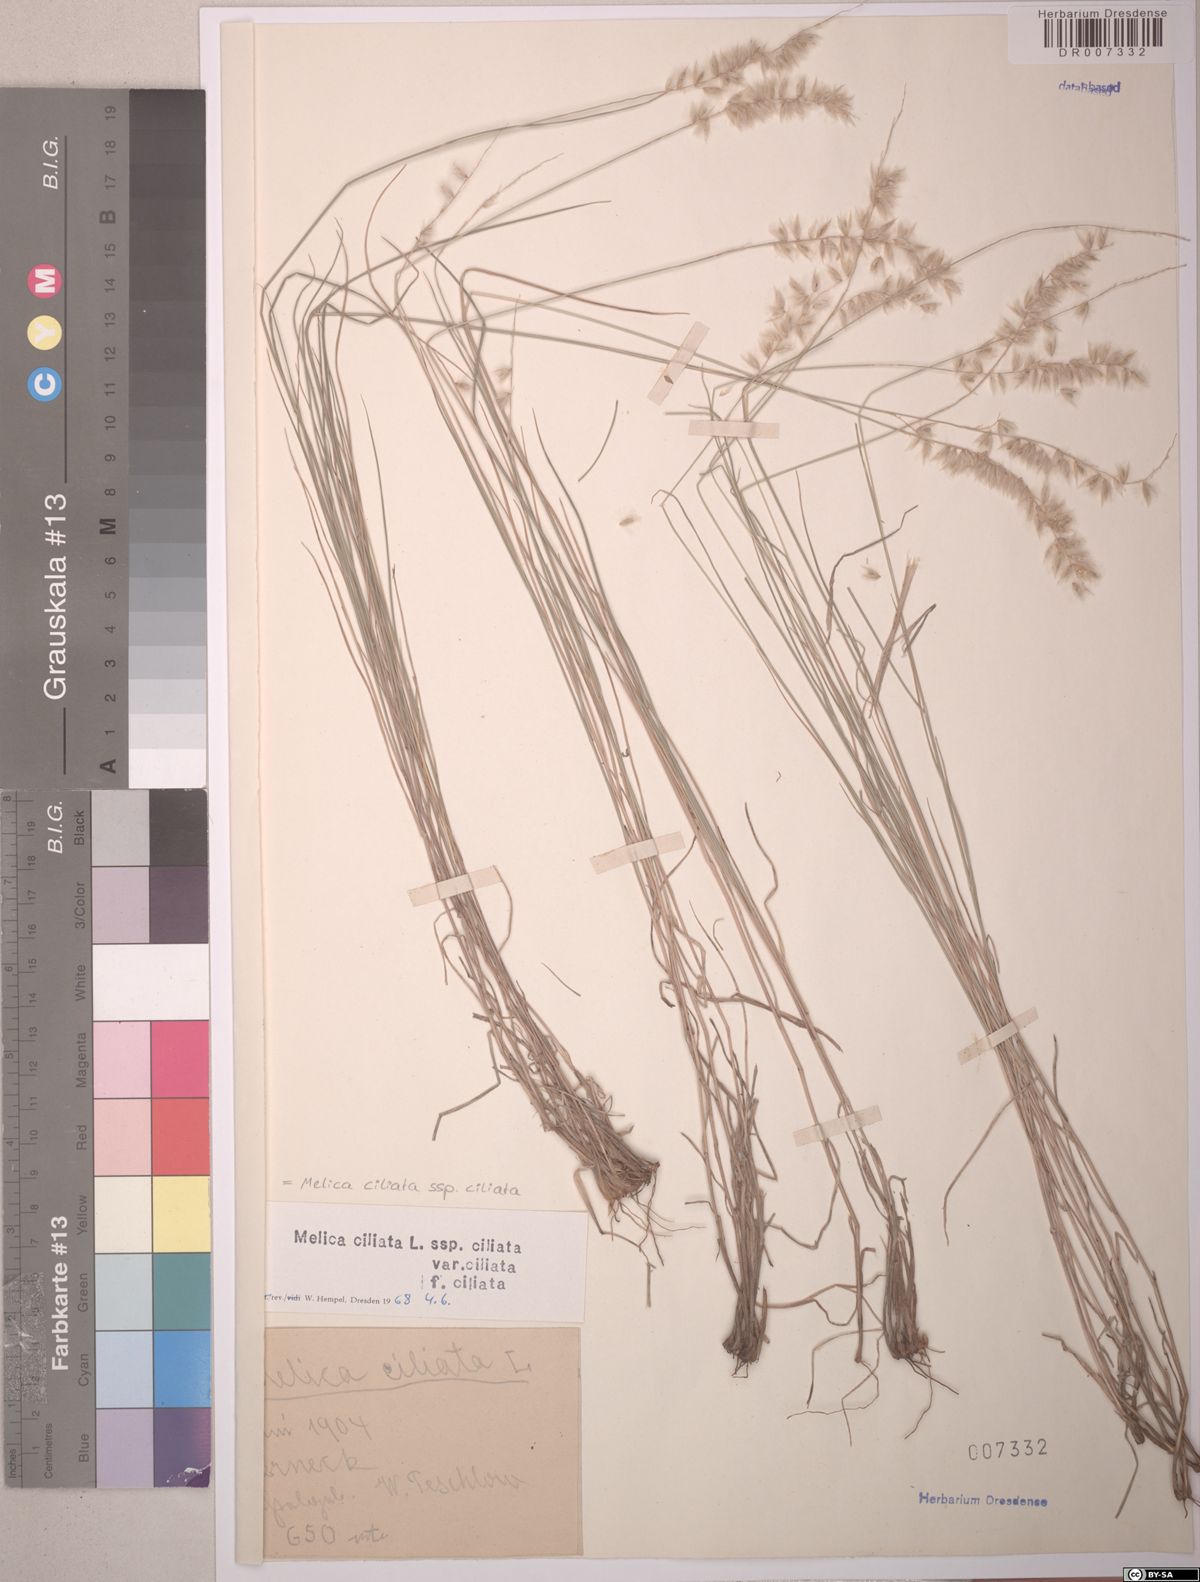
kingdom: Plantae
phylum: Tracheophyta
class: Liliopsida
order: Poales
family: Poaceae
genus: Melica
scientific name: Melica ciliata
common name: Hairy melicgrass
